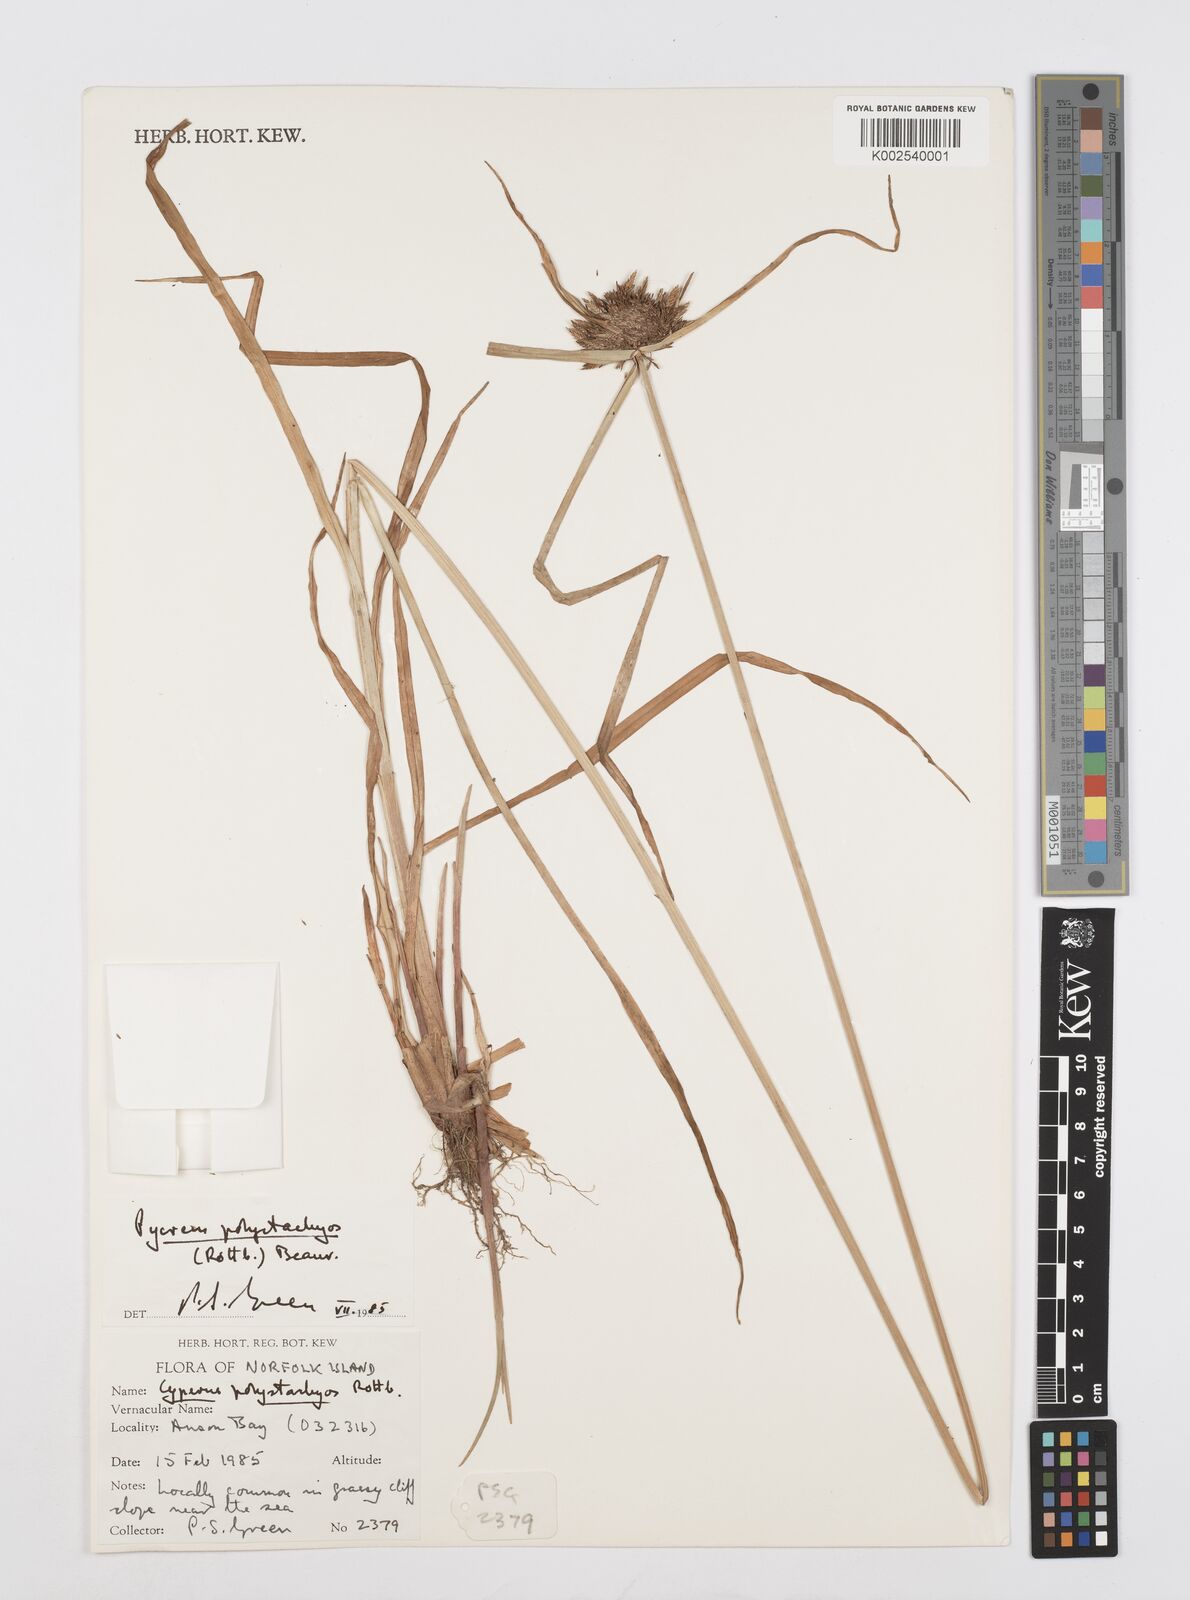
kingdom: Plantae
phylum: Tracheophyta
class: Liliopsida
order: Poales
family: Cyperaceae
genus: Cyperus
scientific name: Cyperus polystachyos
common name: Bunchy flat sedge
